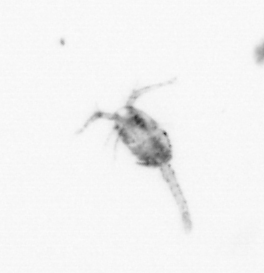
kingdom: Animalia
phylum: Arthropoda
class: Copepoda
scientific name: Copepoda
